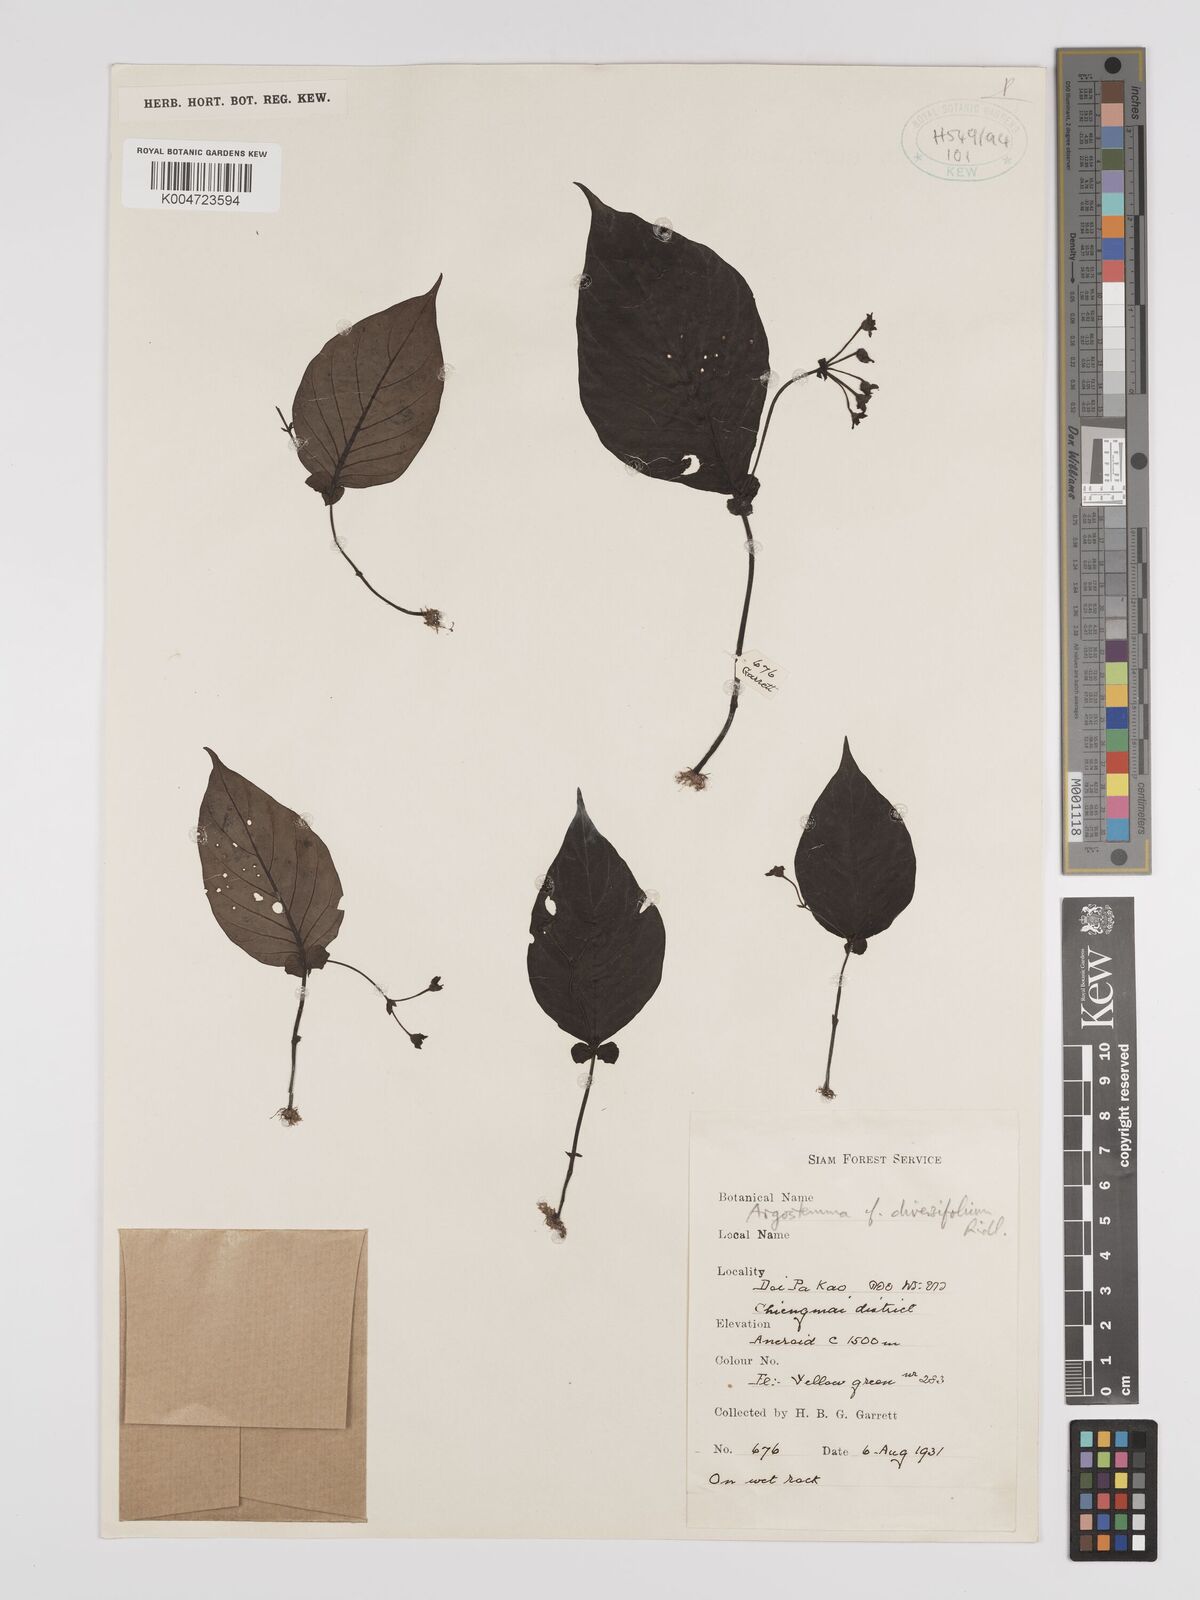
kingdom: Plantae
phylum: Tracheophyta
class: Magnoliopsida
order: Gentianales
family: Rubiaceae
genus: Argostemma
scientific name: Argostemma diversifolium
